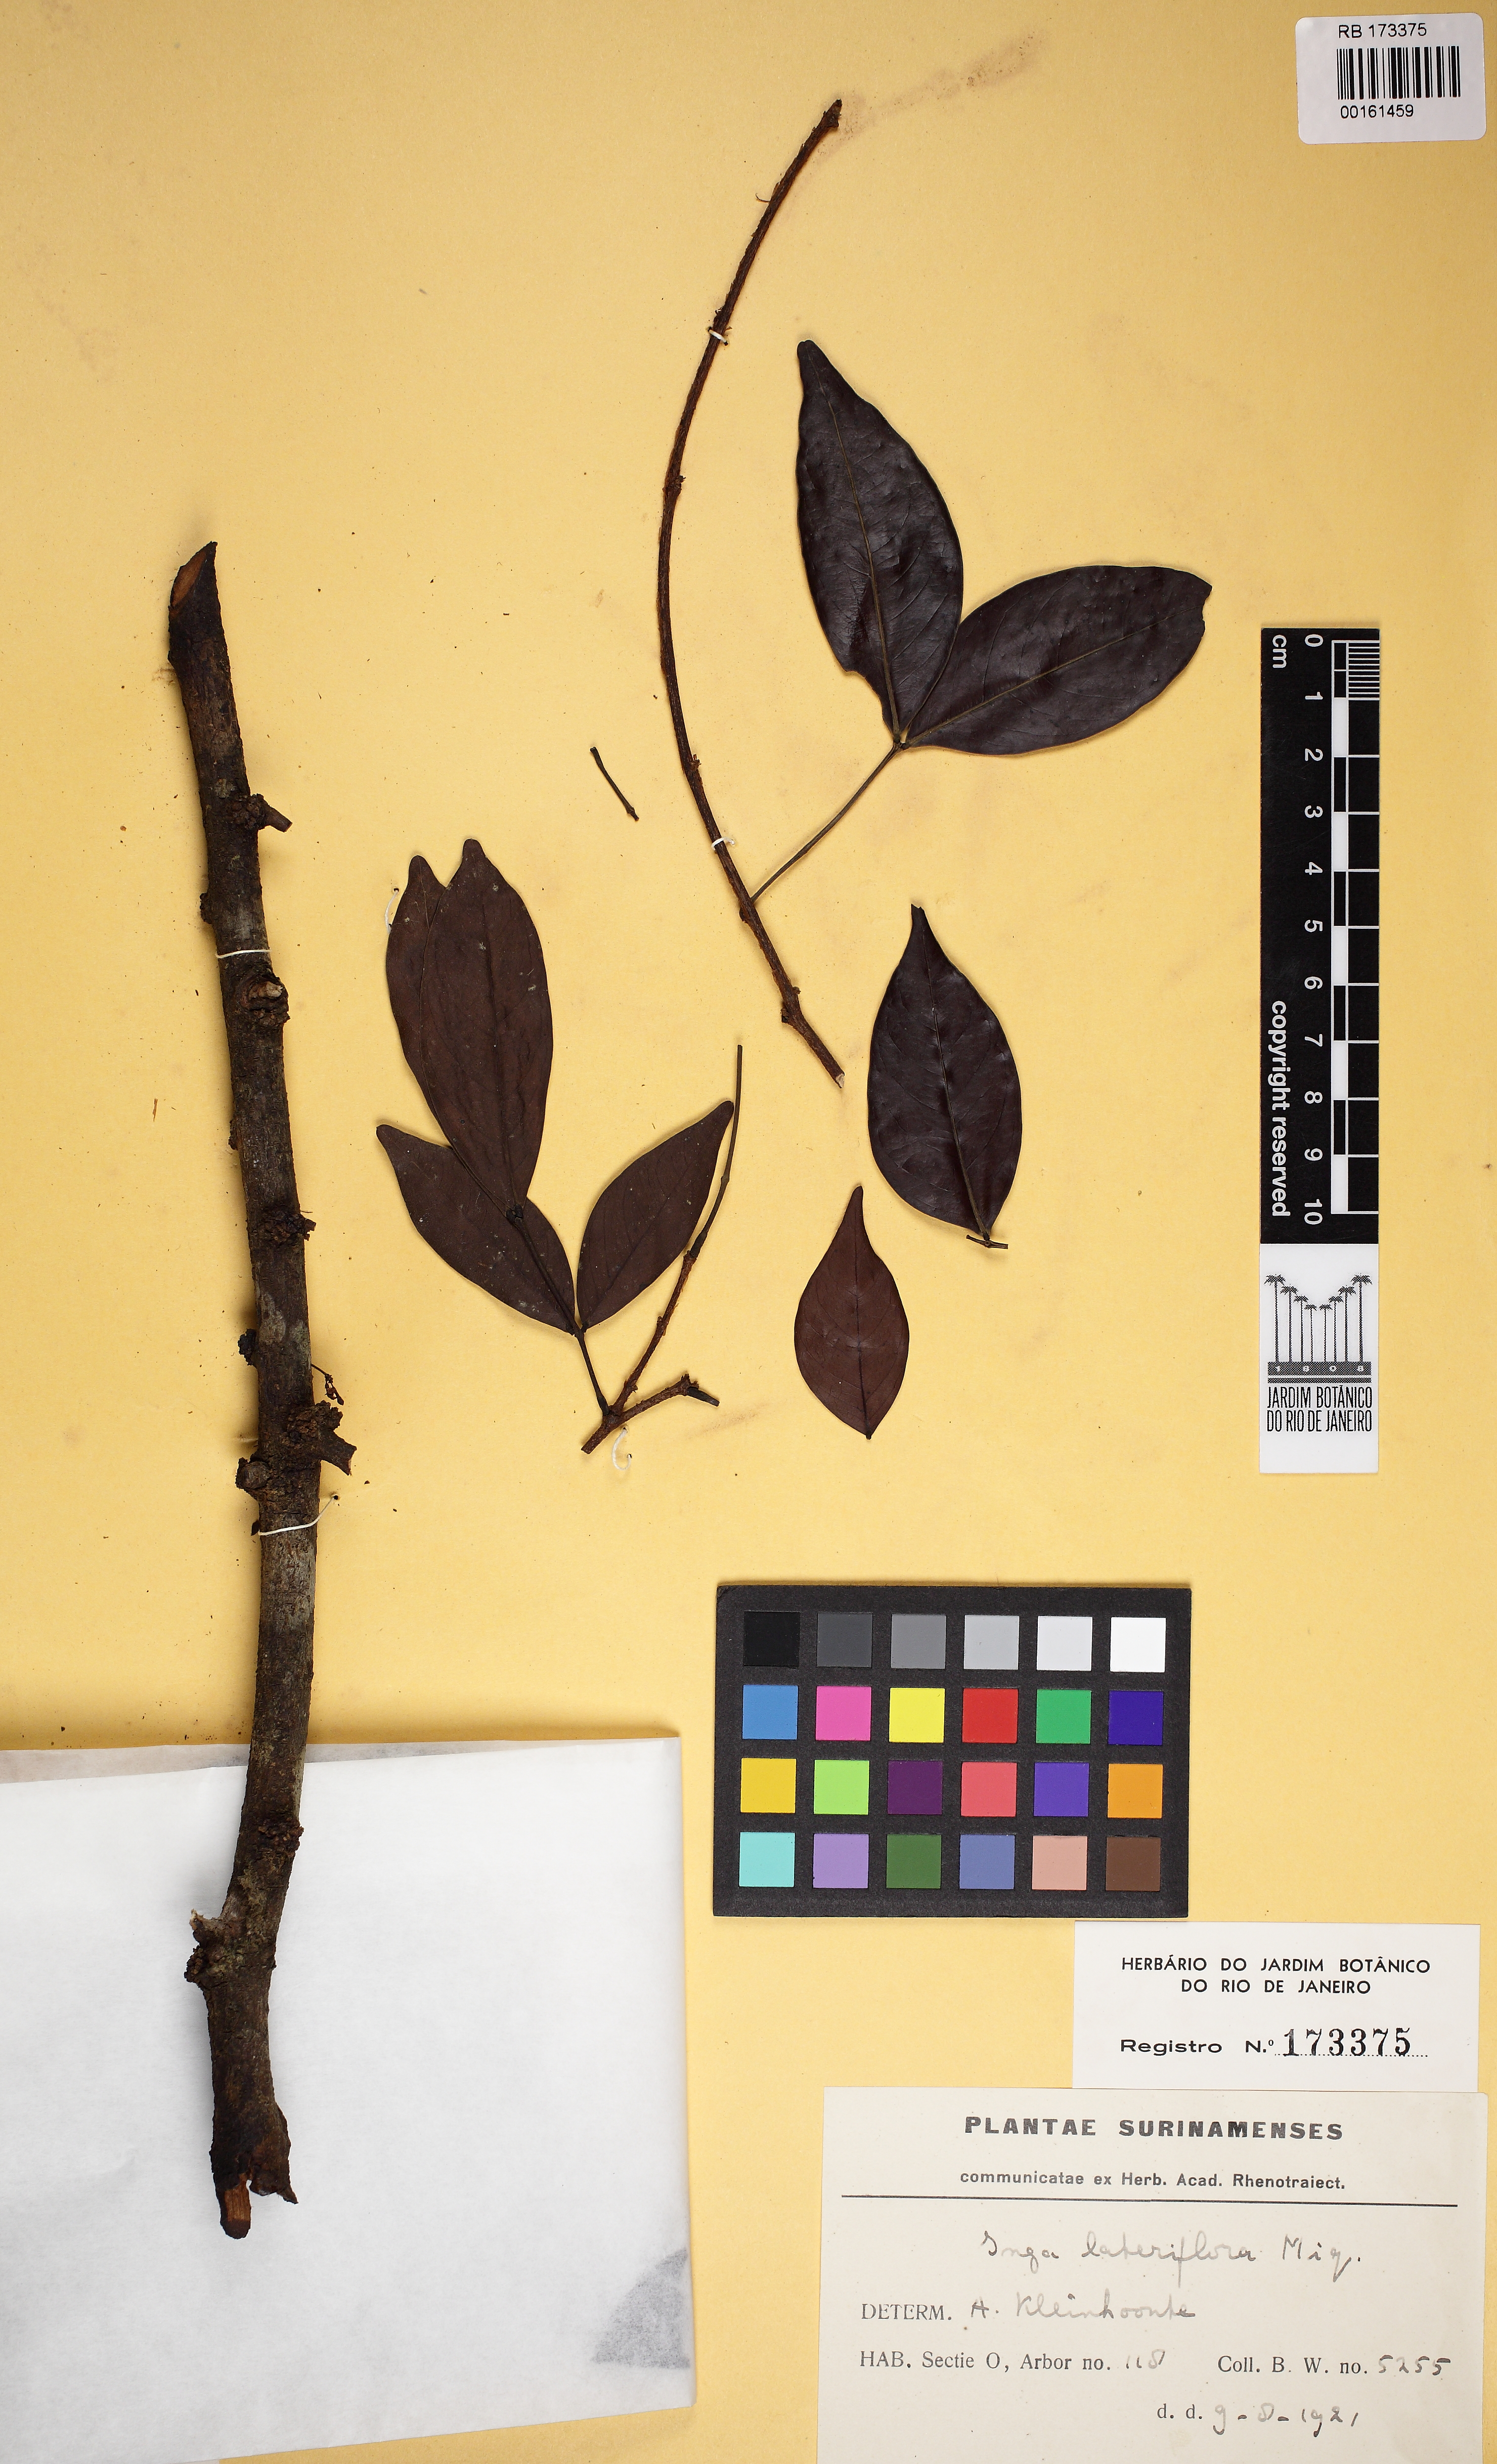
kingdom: Plantae
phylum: Tracheophyta
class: Magnoliopsida
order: Fabales
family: Fabaceae
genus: Inga
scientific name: Inga lateriflora
